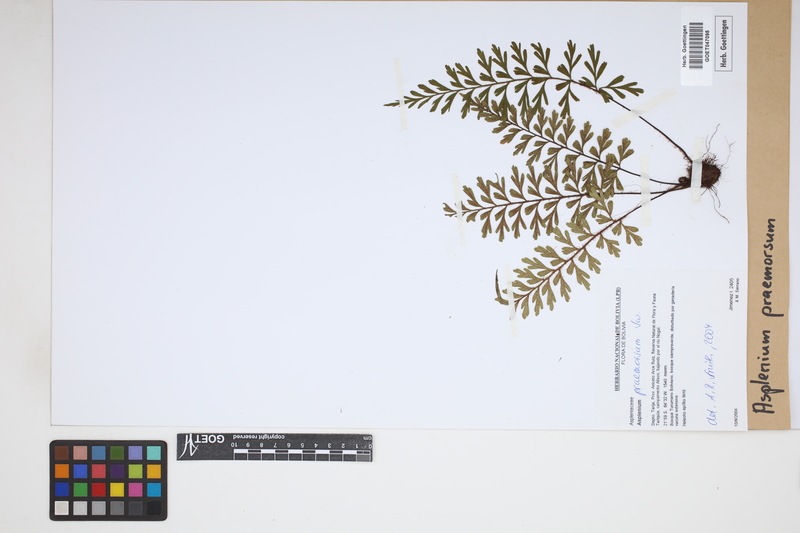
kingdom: Plantae
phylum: Tracheophyta
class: Polypodiopsida
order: Polypodiales
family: Aspleniaceae
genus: Asplenium
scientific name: Asplenium praemorsum
